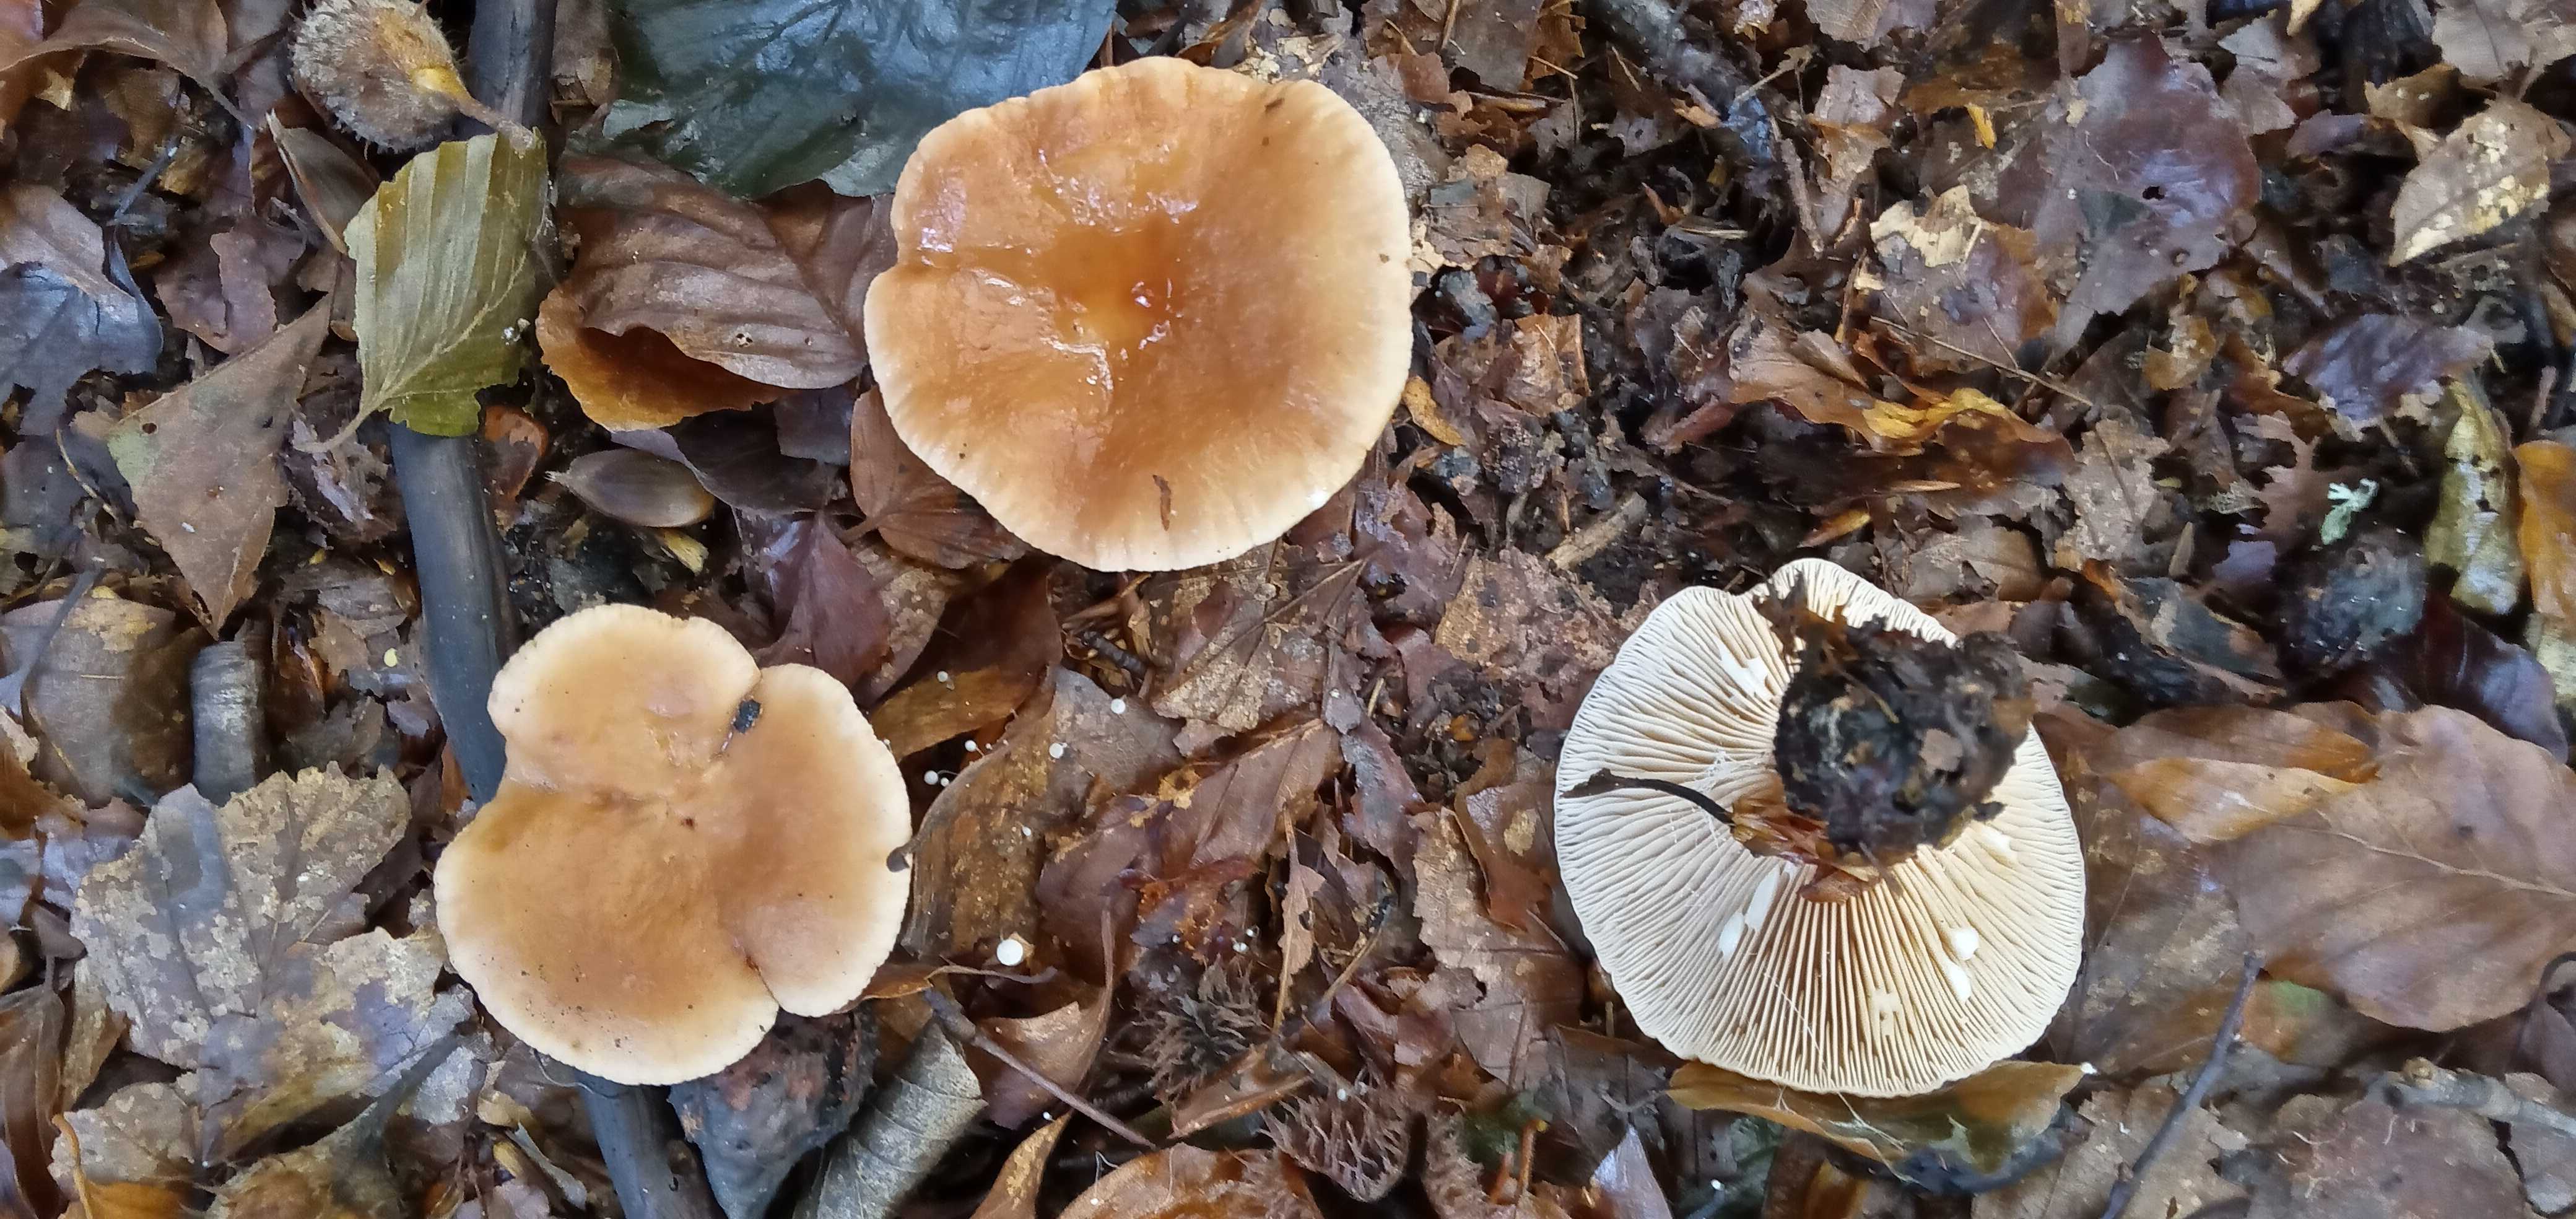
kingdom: Fungi
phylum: Basidiomycota
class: Agaricomycetes
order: Russulales
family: Russulaceae
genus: Lactarius
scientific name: Lactarius subdulcis
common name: sødlig mælkehat
